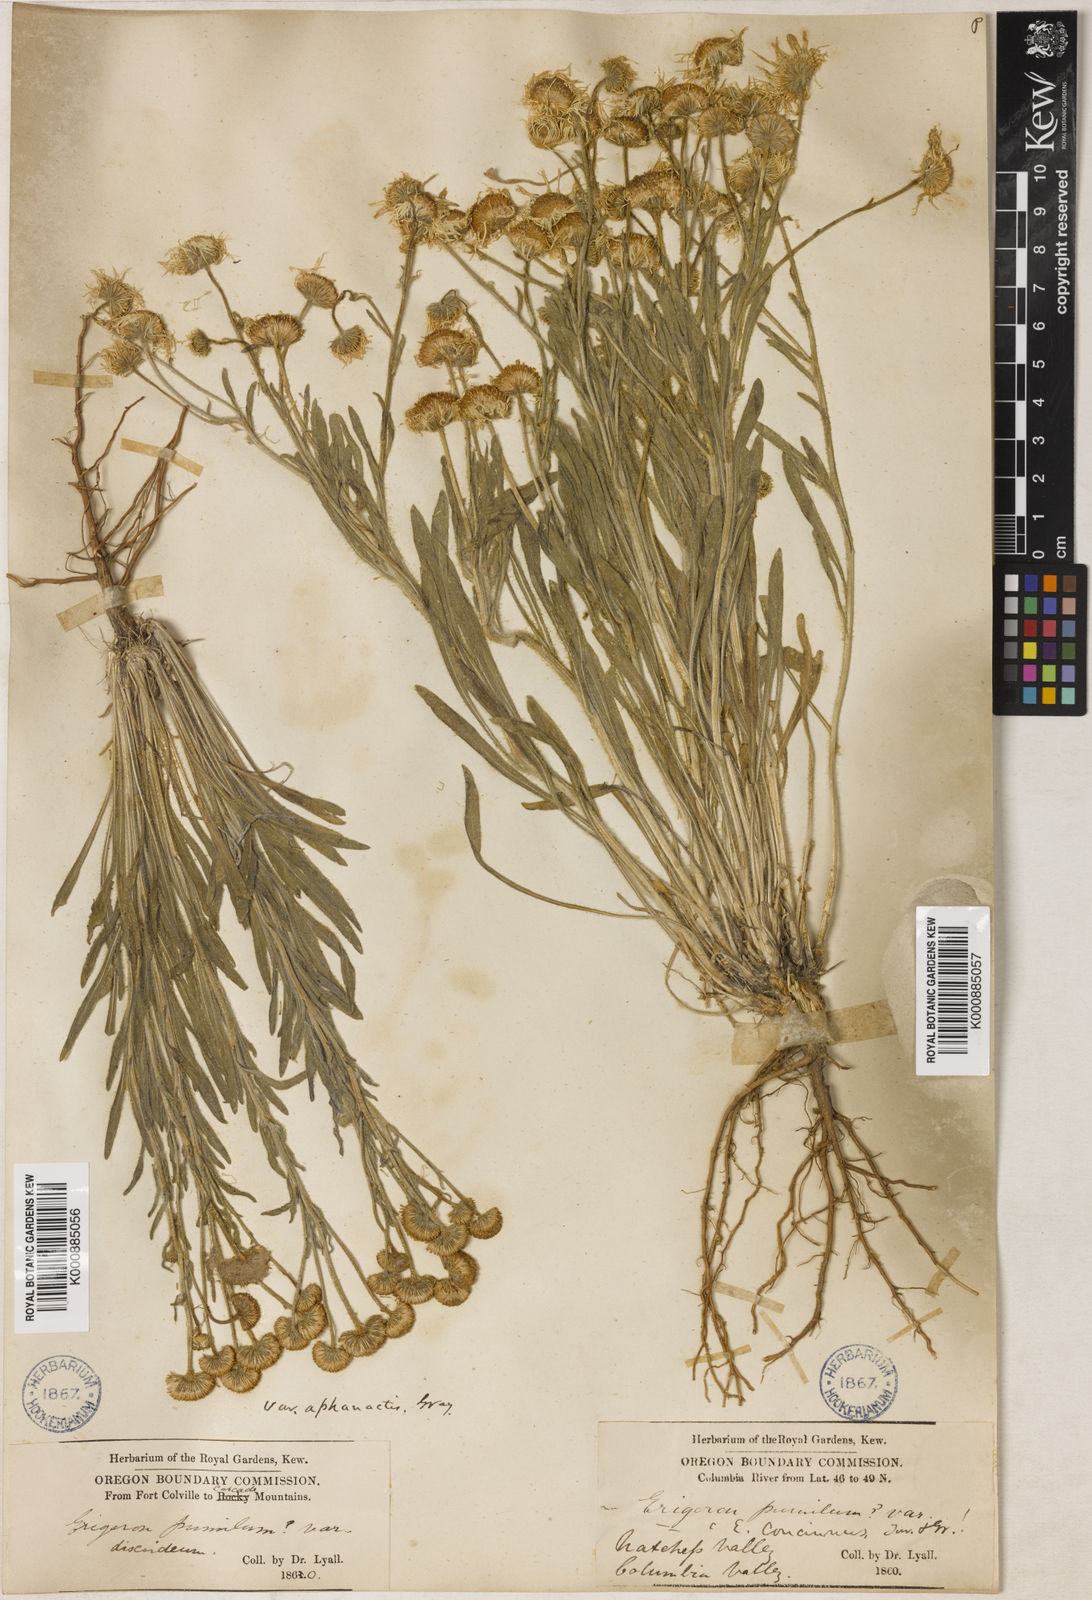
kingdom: Plantae
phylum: Tracheophyta
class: Magnoliopsida
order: Asterales
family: Asteraceae
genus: Erigeron
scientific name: Erigeron aphanactis
